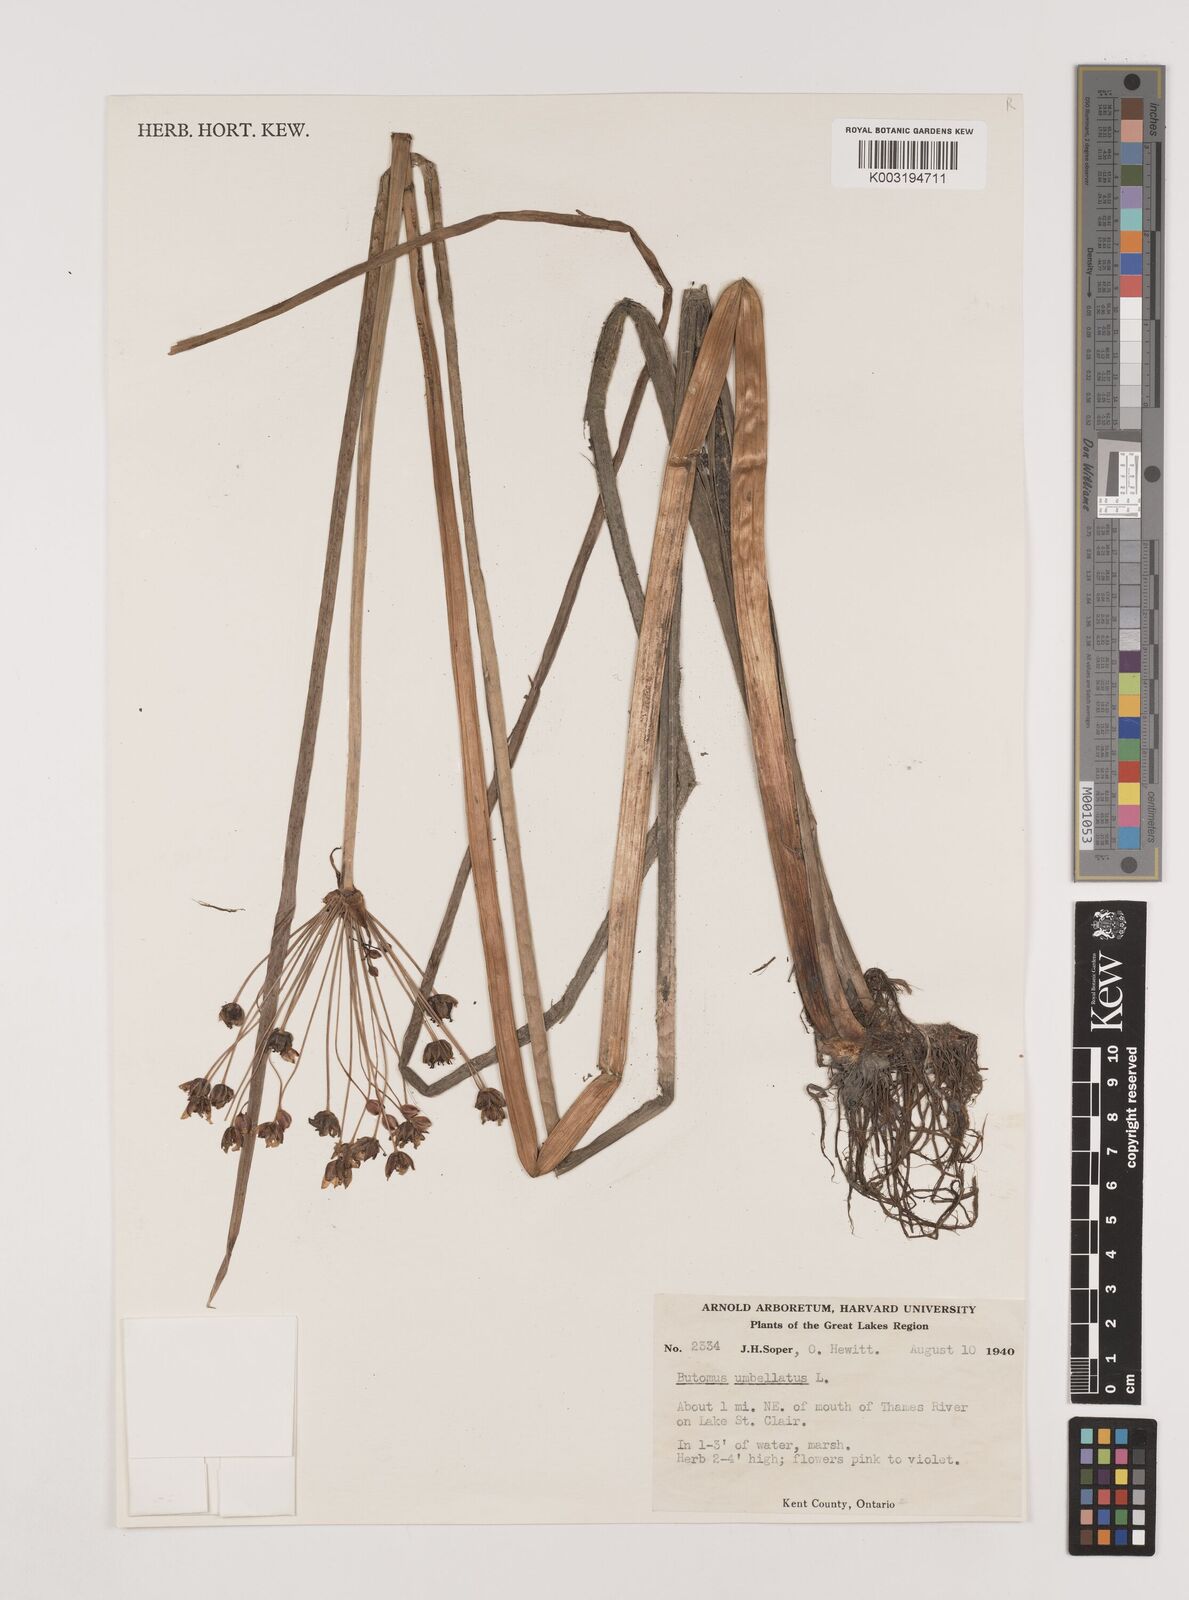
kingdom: Plantae
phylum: Tracheophyta
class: Liliopsida
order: Alismatales
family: Butomaceae
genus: Butomus
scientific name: Butomus umbellatus
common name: Flowering-rush
